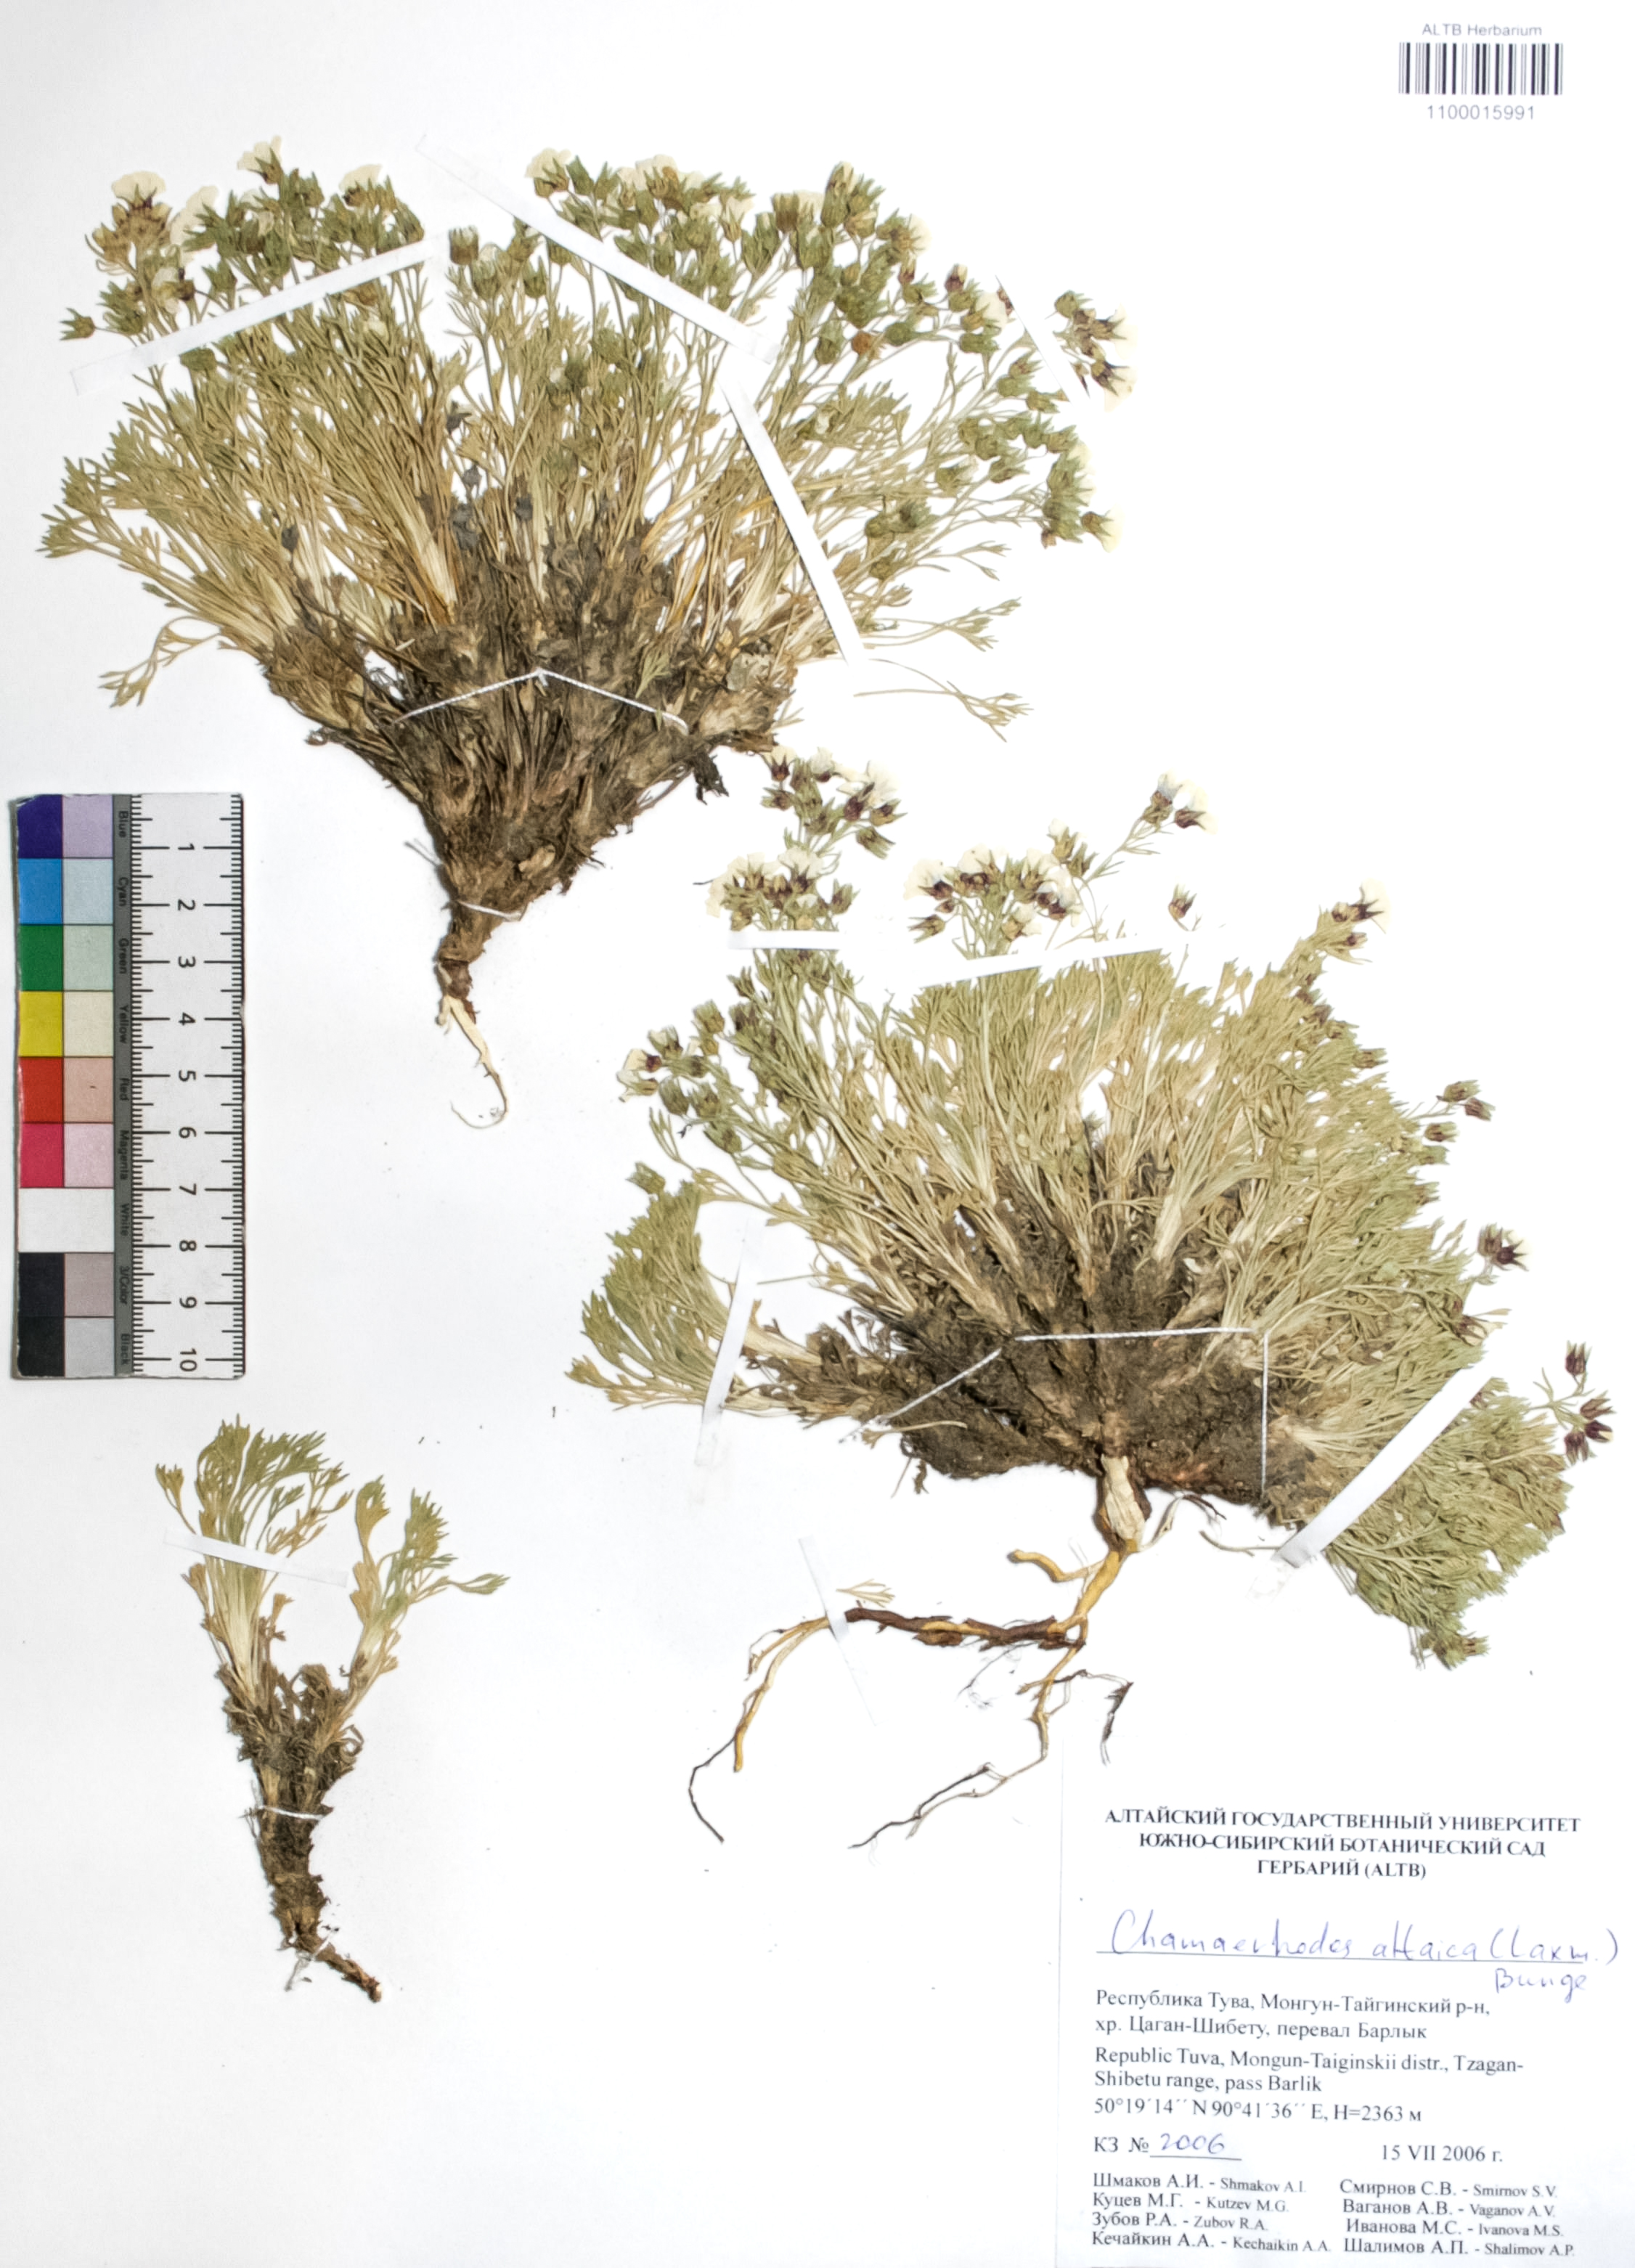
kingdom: Plantae
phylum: Tracheophyta
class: Magnoliopsida
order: Rosales
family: Rosaceae
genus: Chamaerhodos
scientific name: Chamaerhodos altaica
